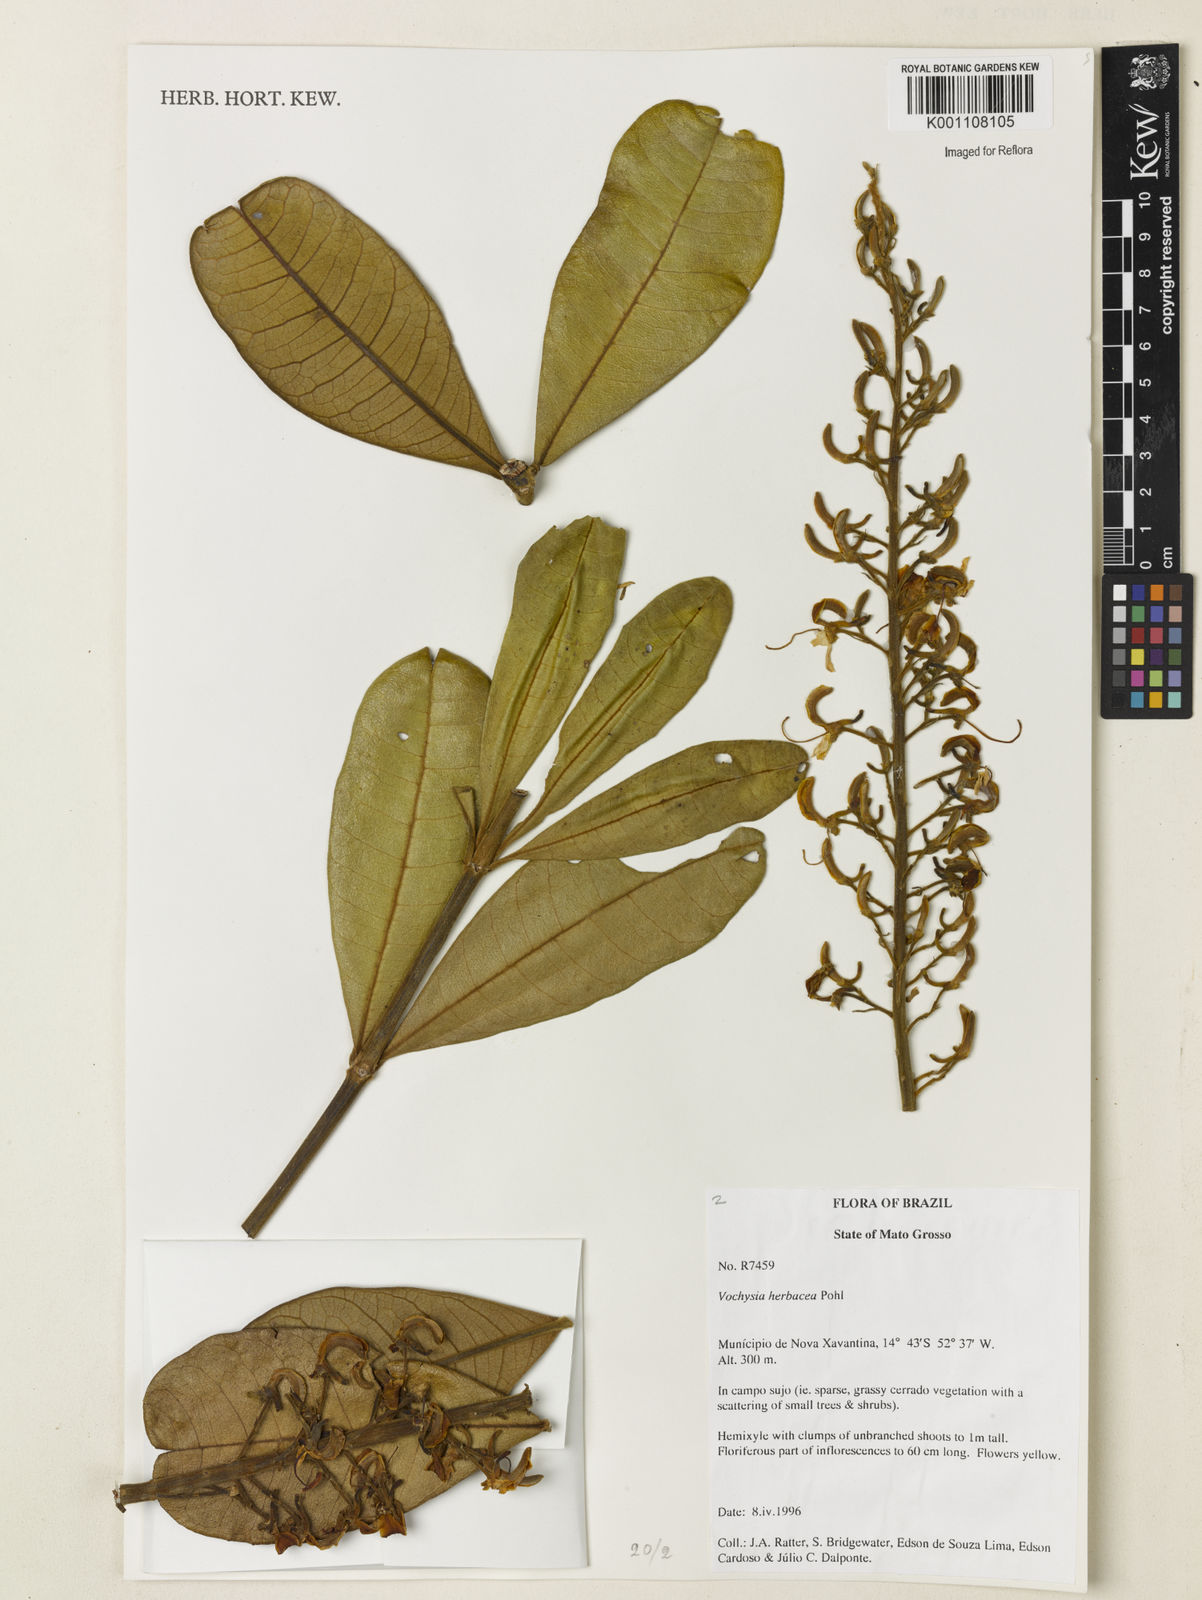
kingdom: Plantae
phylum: Tracheophyta
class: Magnoliopsida
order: Myrtales
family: Vochysiaceae
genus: Vochysia
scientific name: Vochysia herbacea
